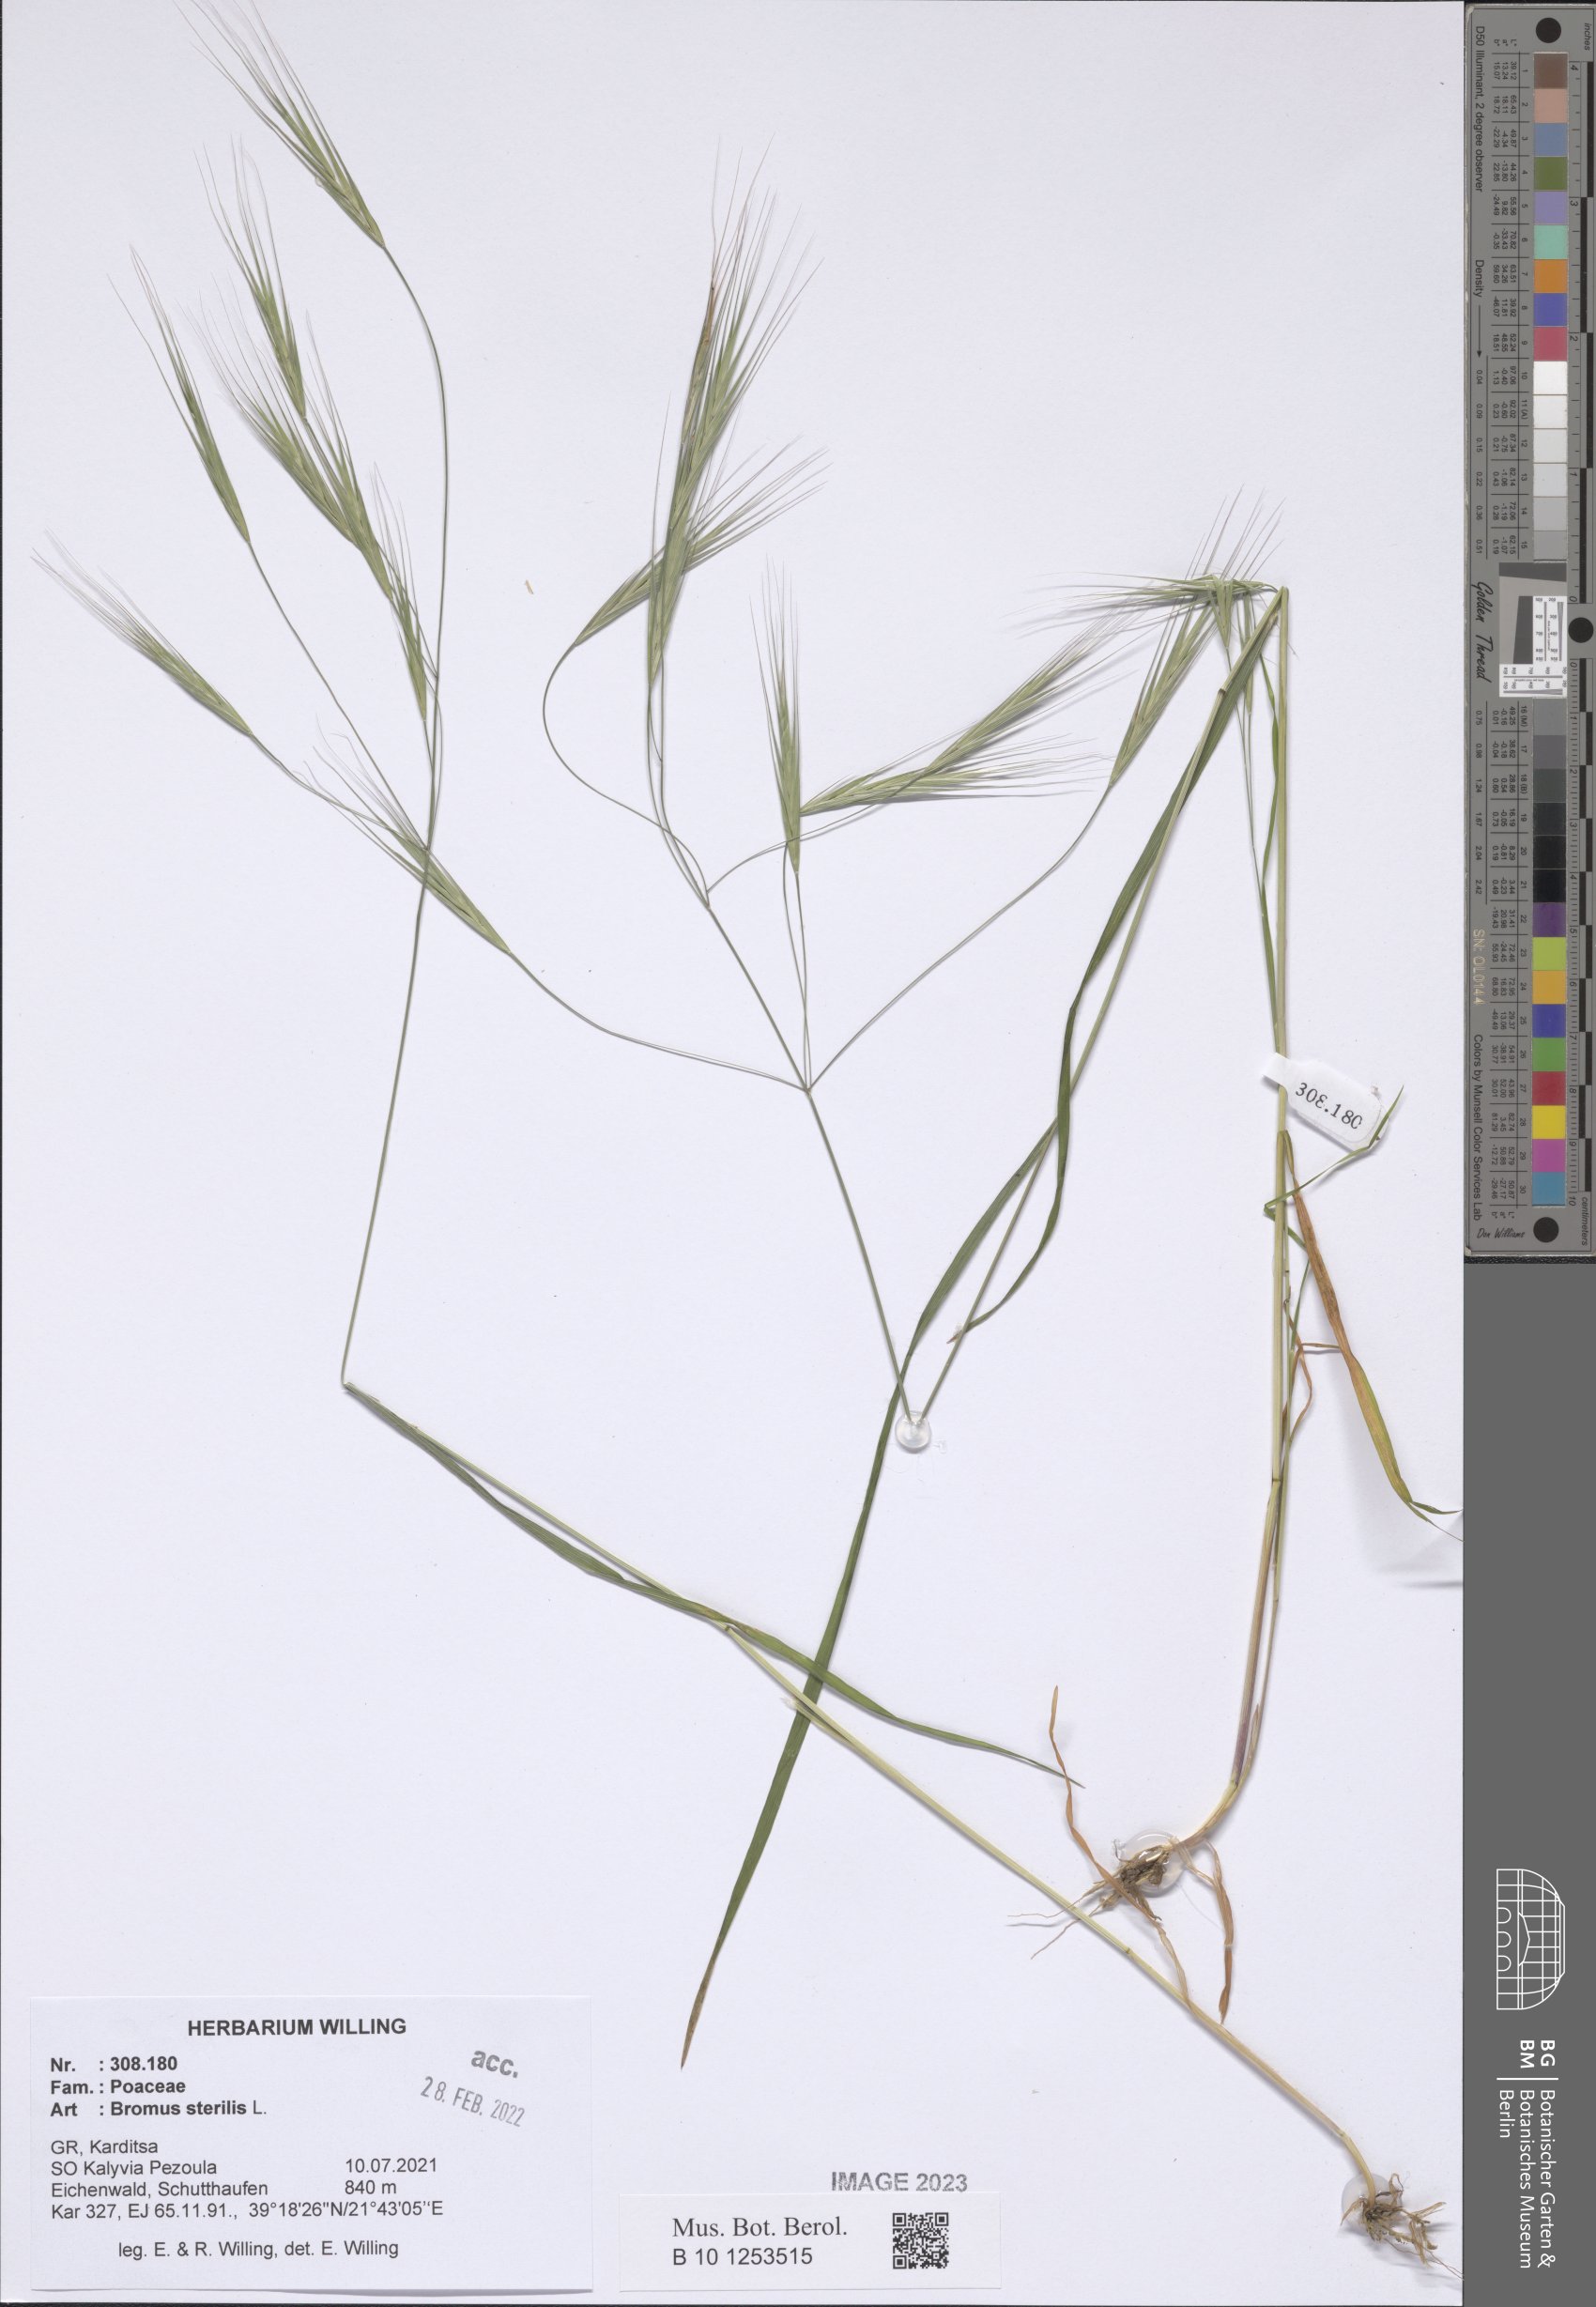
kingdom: Plantae
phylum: Tracheophyta
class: Liliopsida
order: Poales
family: Poaceae
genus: Bromus
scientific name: Bromus sterilis
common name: Poverty brome
